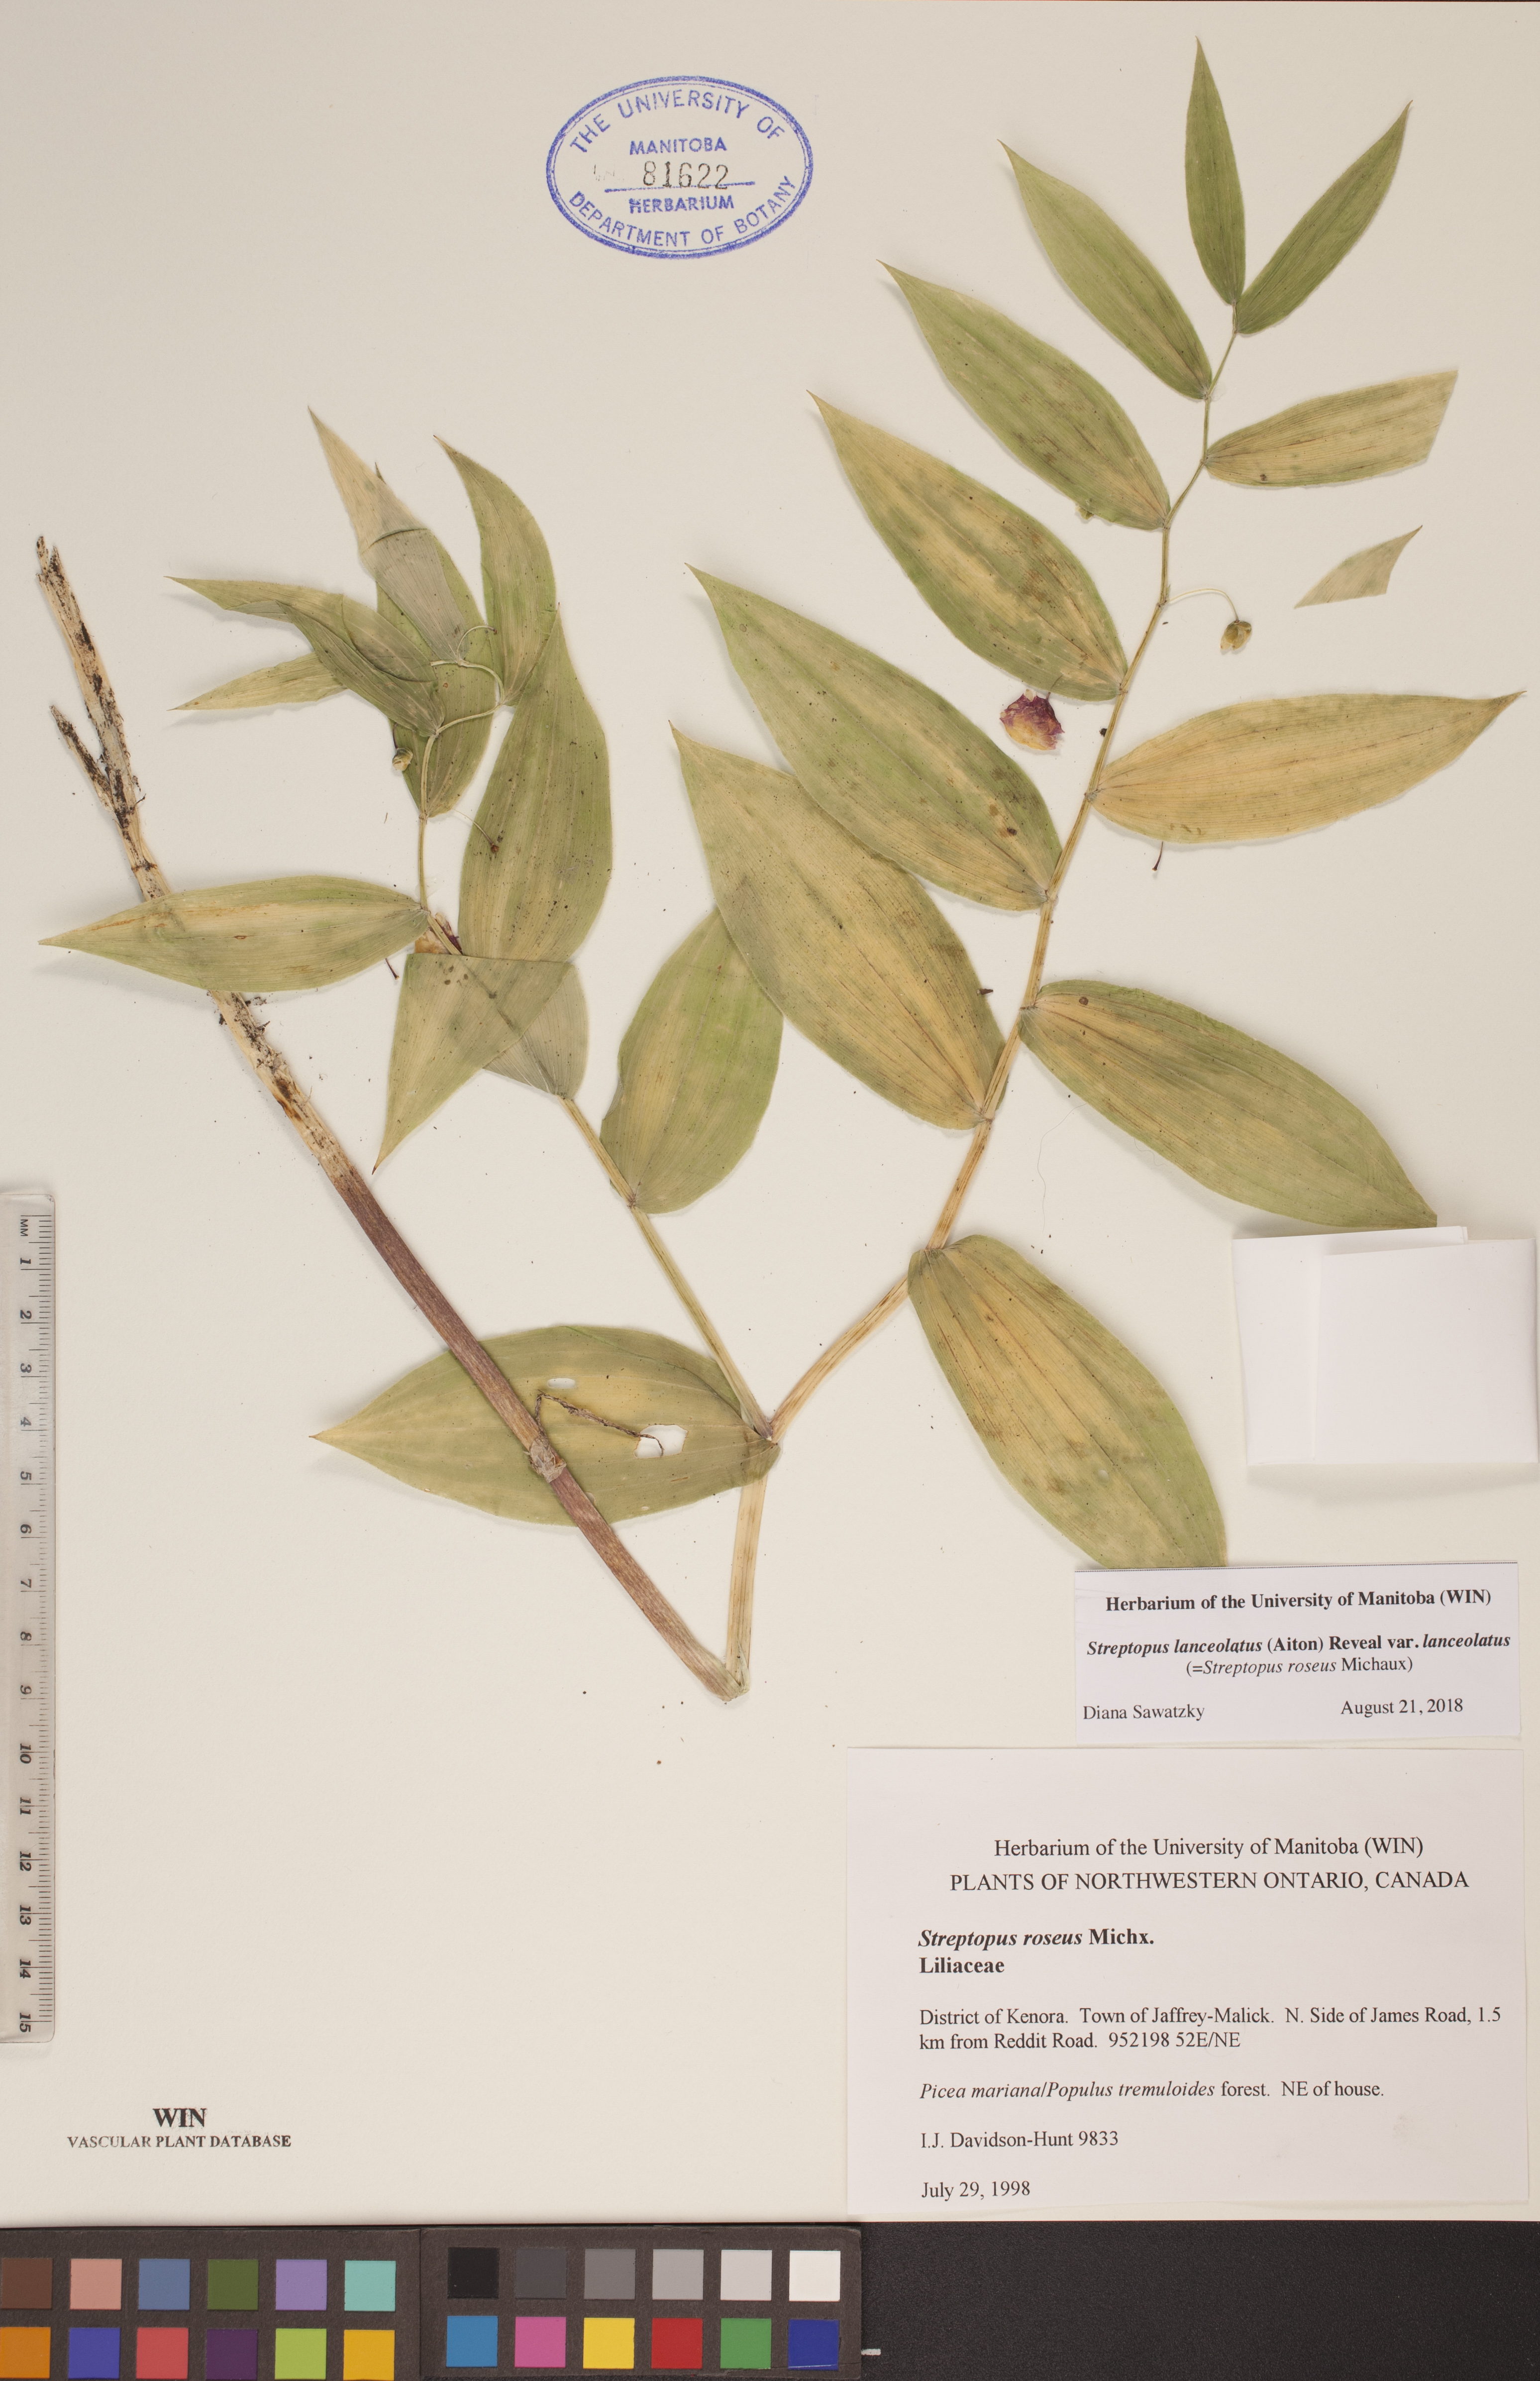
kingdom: Plantae
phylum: Tracheophyta
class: Liliopsida
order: Liliales
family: Liliaceae
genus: Streptopus
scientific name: Streptopus lanceolatus
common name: Rose mandarin
